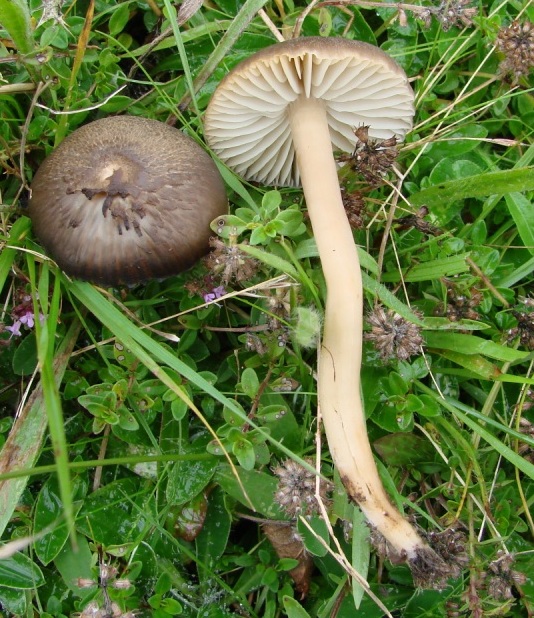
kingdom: Fungi
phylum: Basidiomycota
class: Agaricomycetes
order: Agaricales
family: Hygrophoraceae
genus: Neohygrocybe
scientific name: Neohygrocybe nitrata
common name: stinkende vokshat
